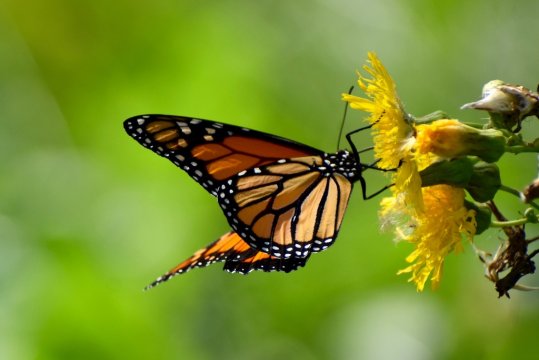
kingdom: Animalia
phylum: Arthropoda
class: Insecta
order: Lepidoptera
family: Nymphalidae
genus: Danaus
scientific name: Danaus plexippus
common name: Monarch
